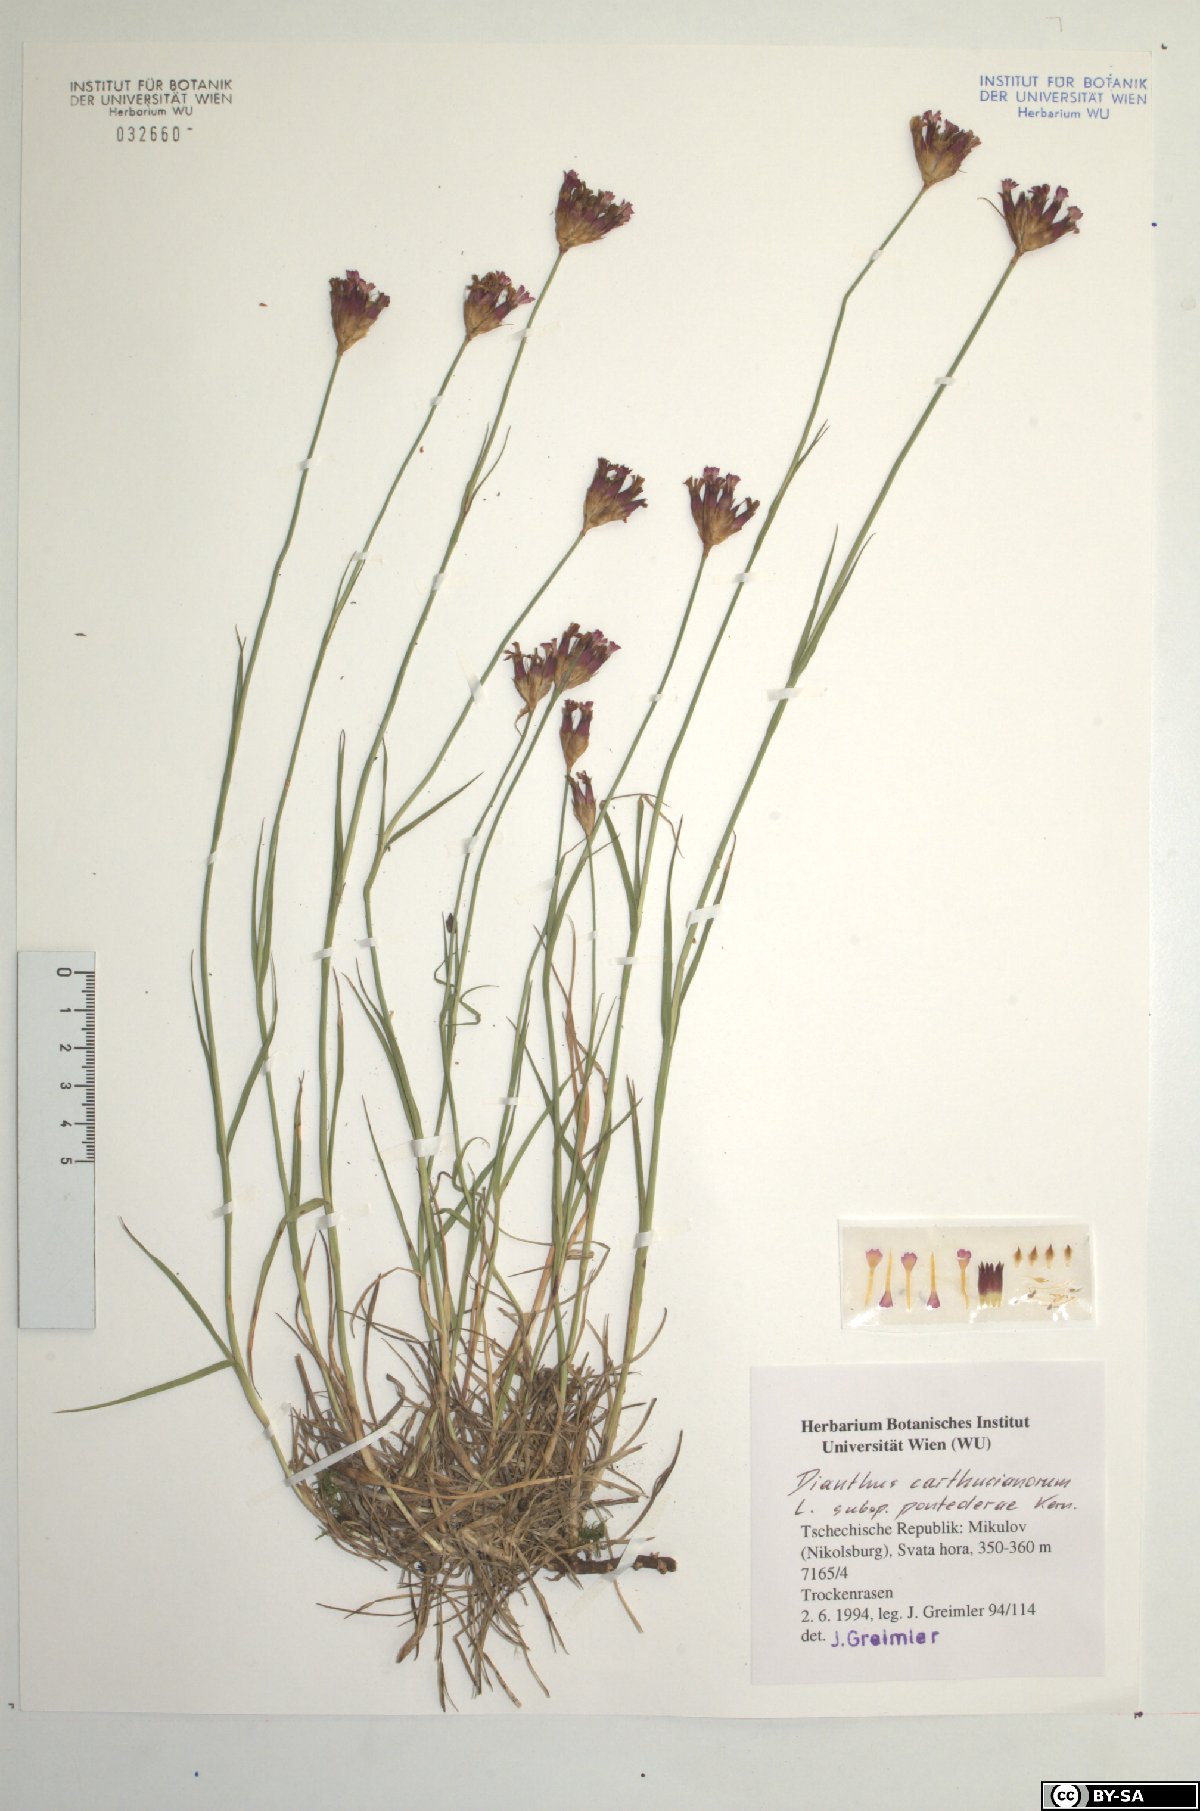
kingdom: Plantae
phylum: Tracheophyta
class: Magnoliopsida
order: Caryophyllales
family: Caryophyllaceae
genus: Dianthus
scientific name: Dianthus pontederae
